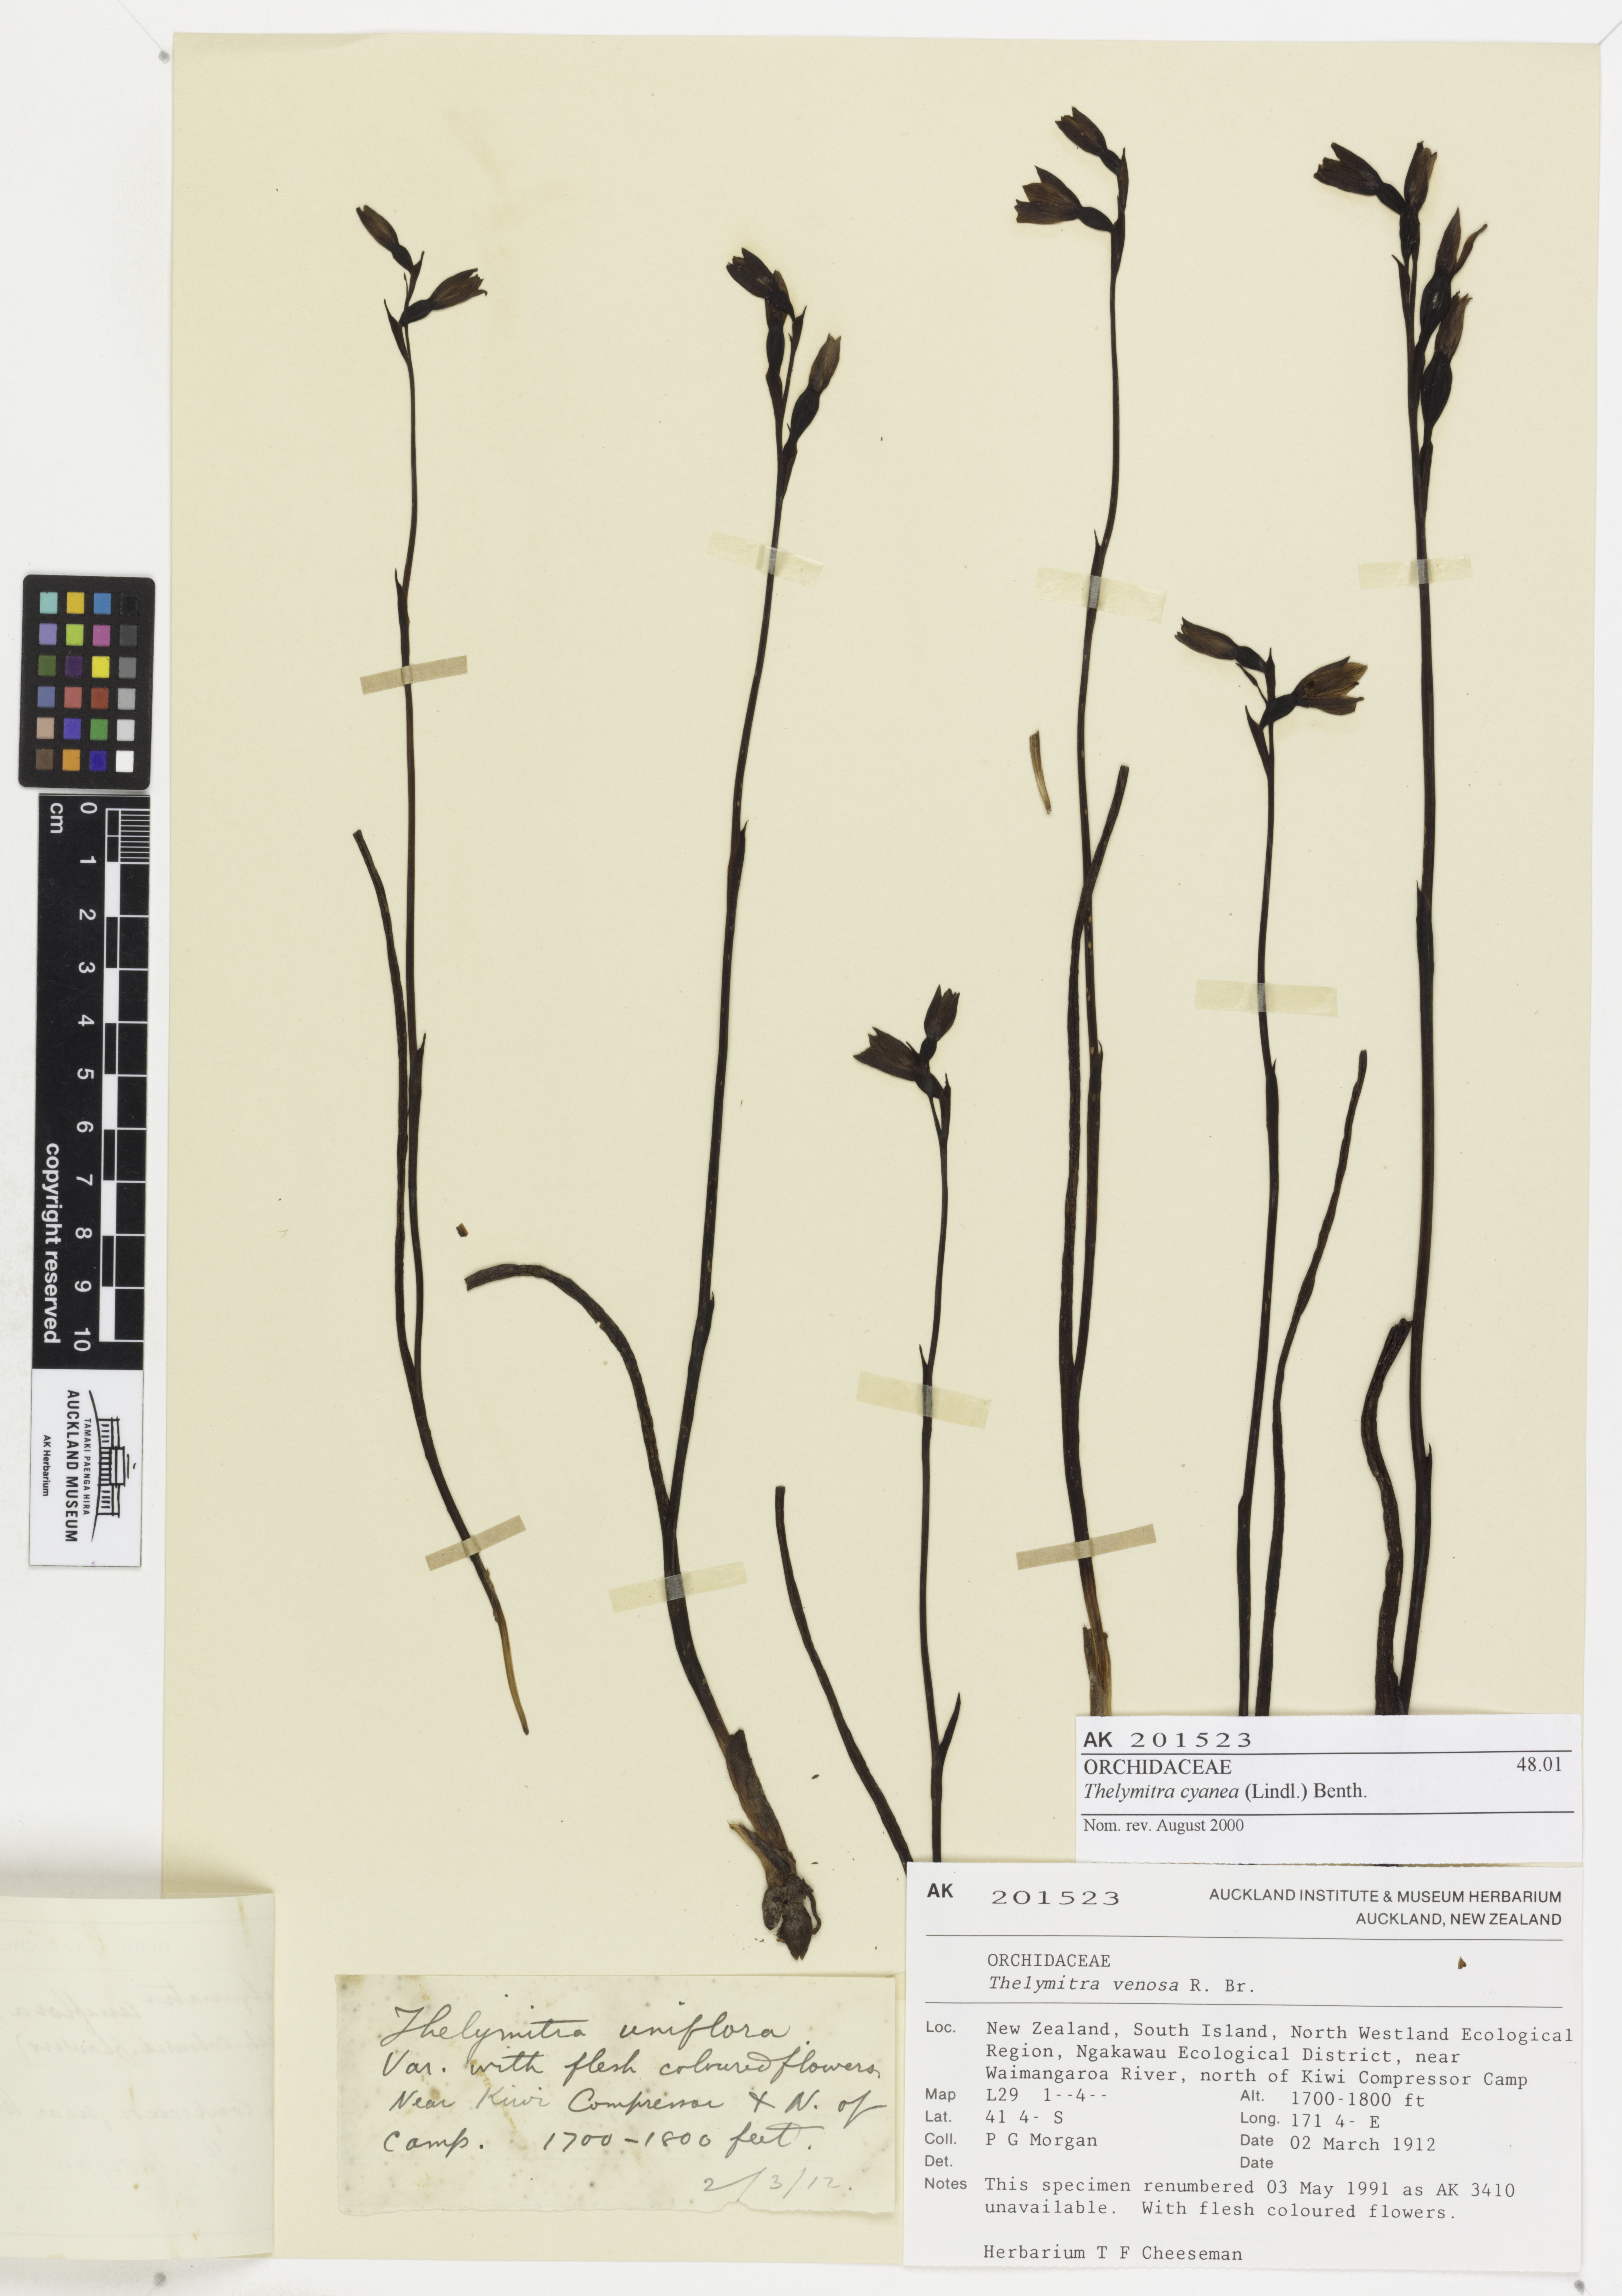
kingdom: Plantae
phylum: Tracheophyta
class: Liliopsida
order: Asparagales
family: Orchidaceae
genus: Thelymitra
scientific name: Thelymitra cyanea
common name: Blue sun-orchid
